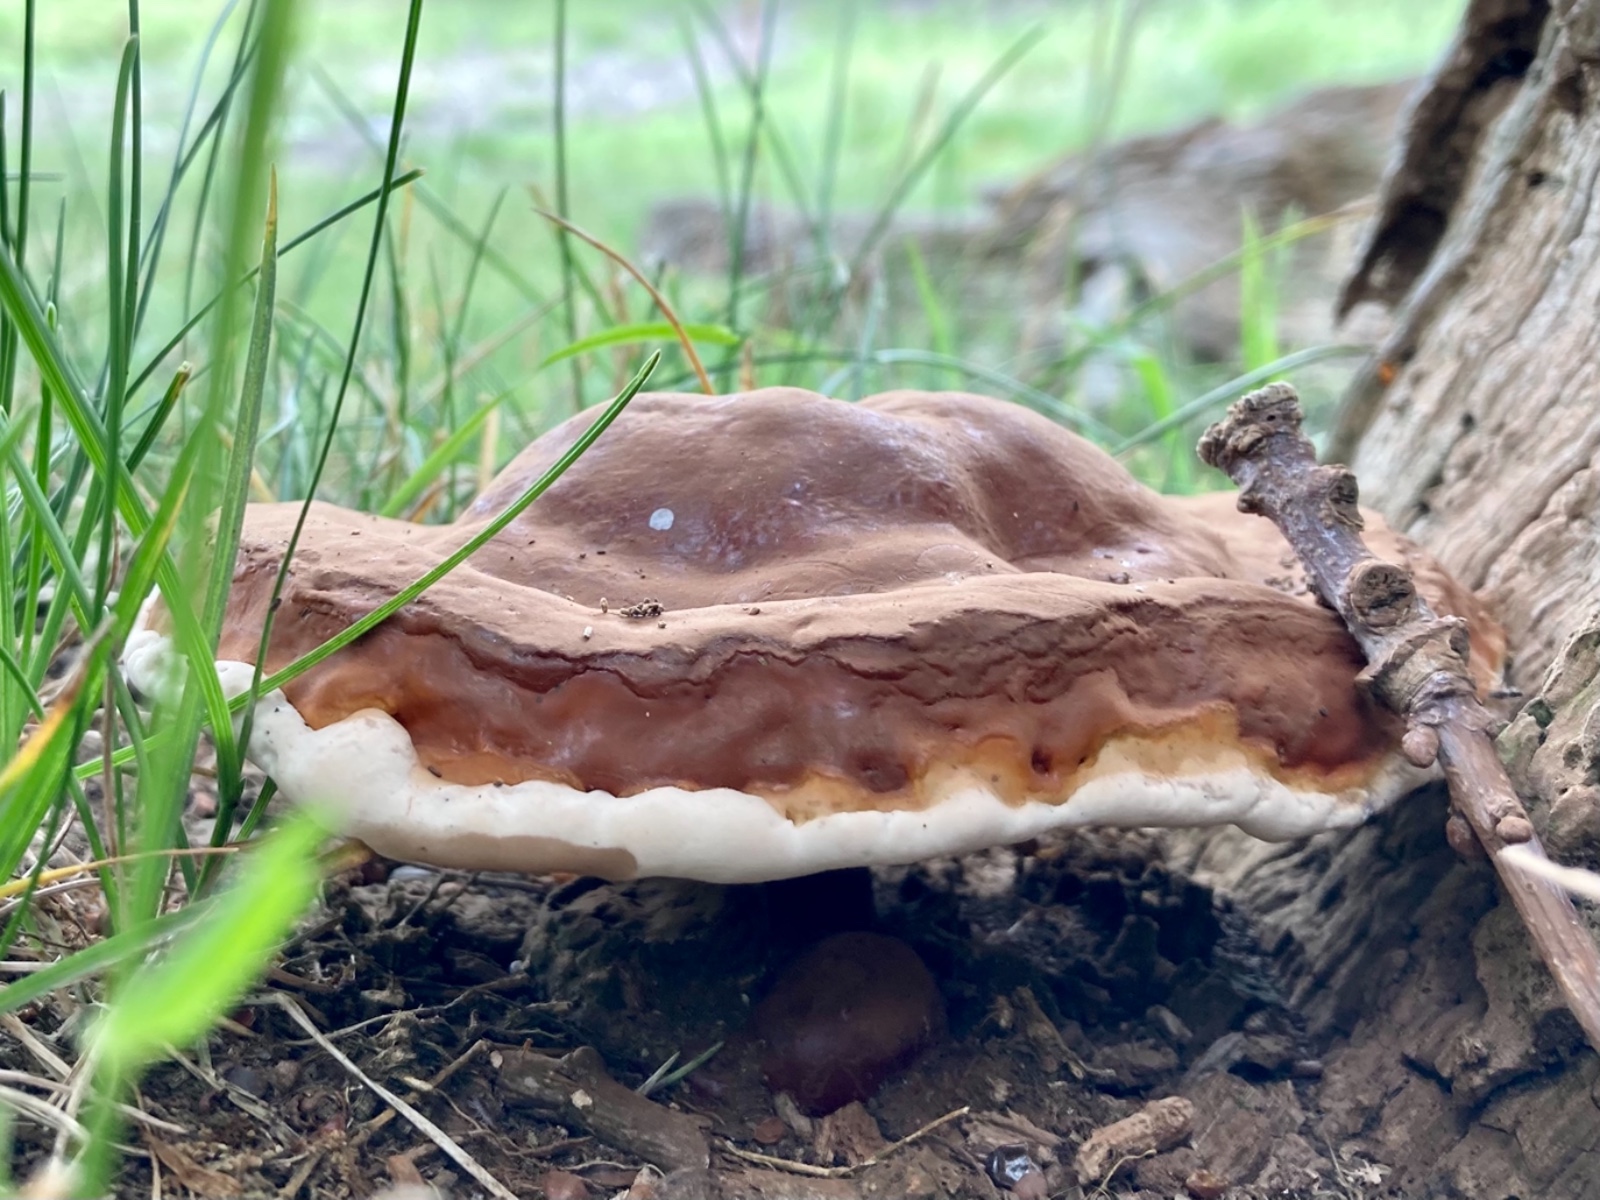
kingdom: Fungi
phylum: Basidiomycota
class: Agaricomycetes
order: Polyporales
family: Polyporaceae
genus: Ganoderma
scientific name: Ganoderma lucidum
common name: skinnende lakporesvamp
